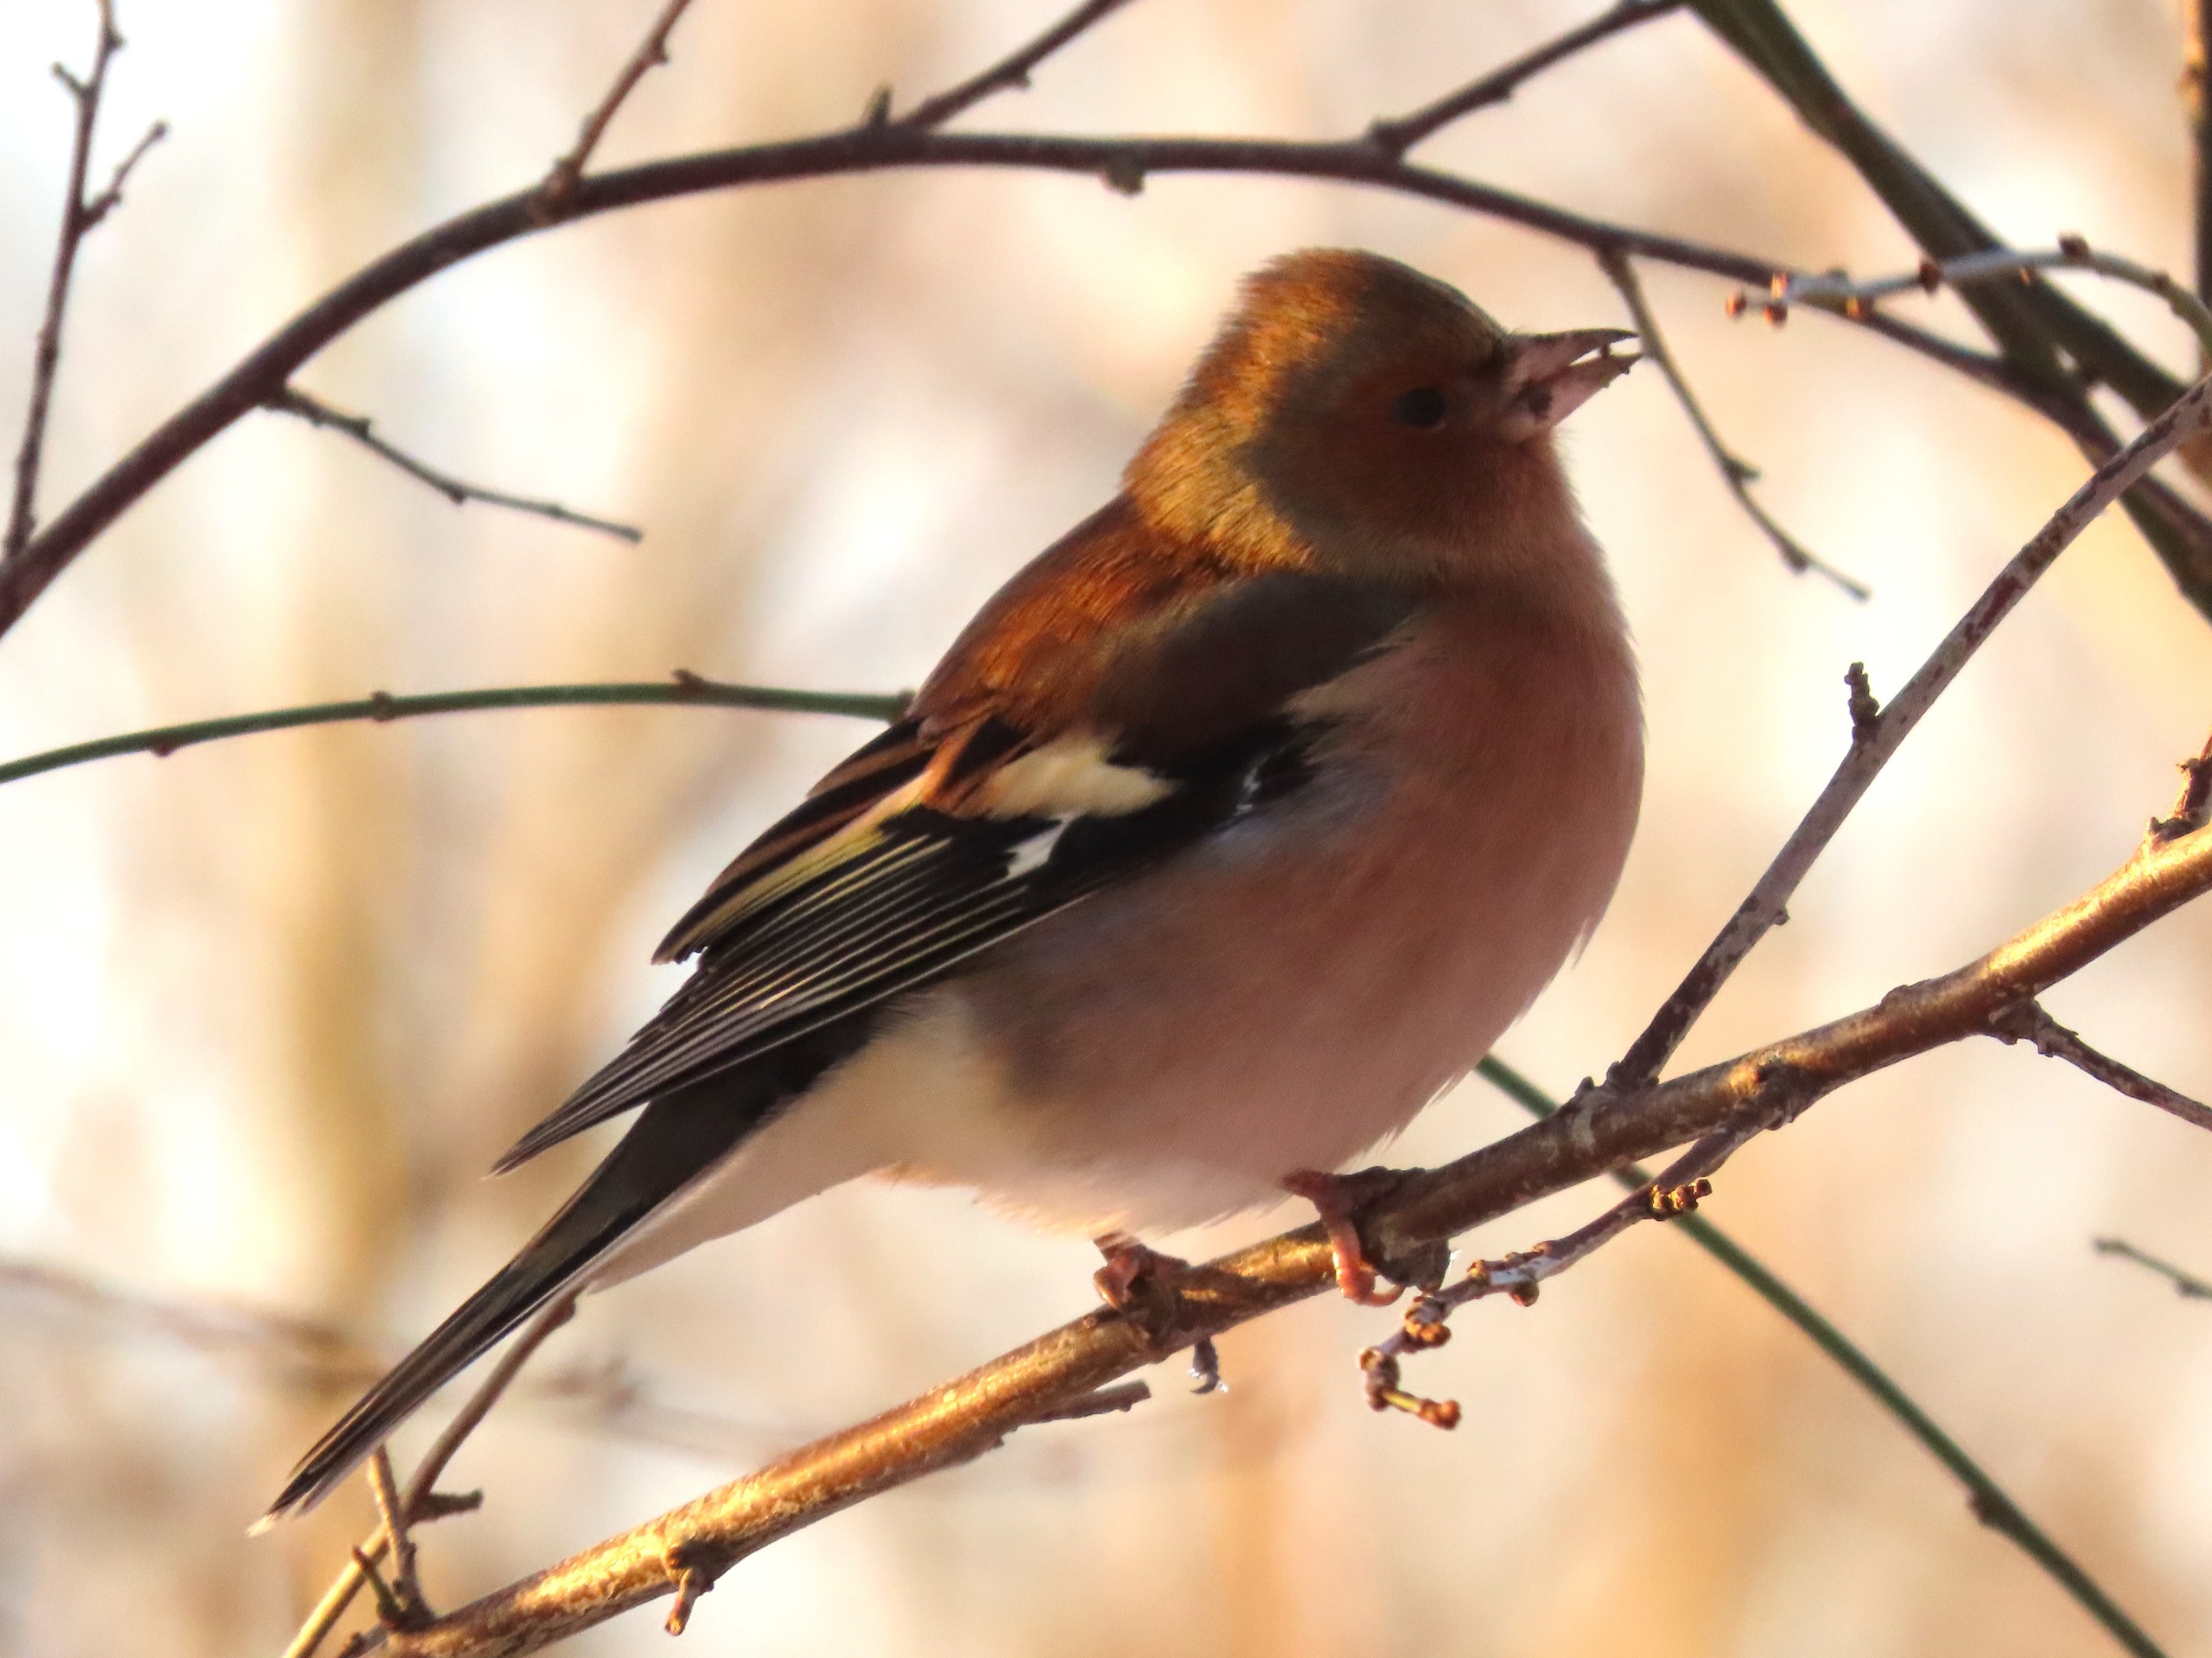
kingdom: Animalia
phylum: Chordata
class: Aves
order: Passeriformes
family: Fringillidae
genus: Fringilla
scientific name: Fringilla coelebs
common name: Bogfinke
